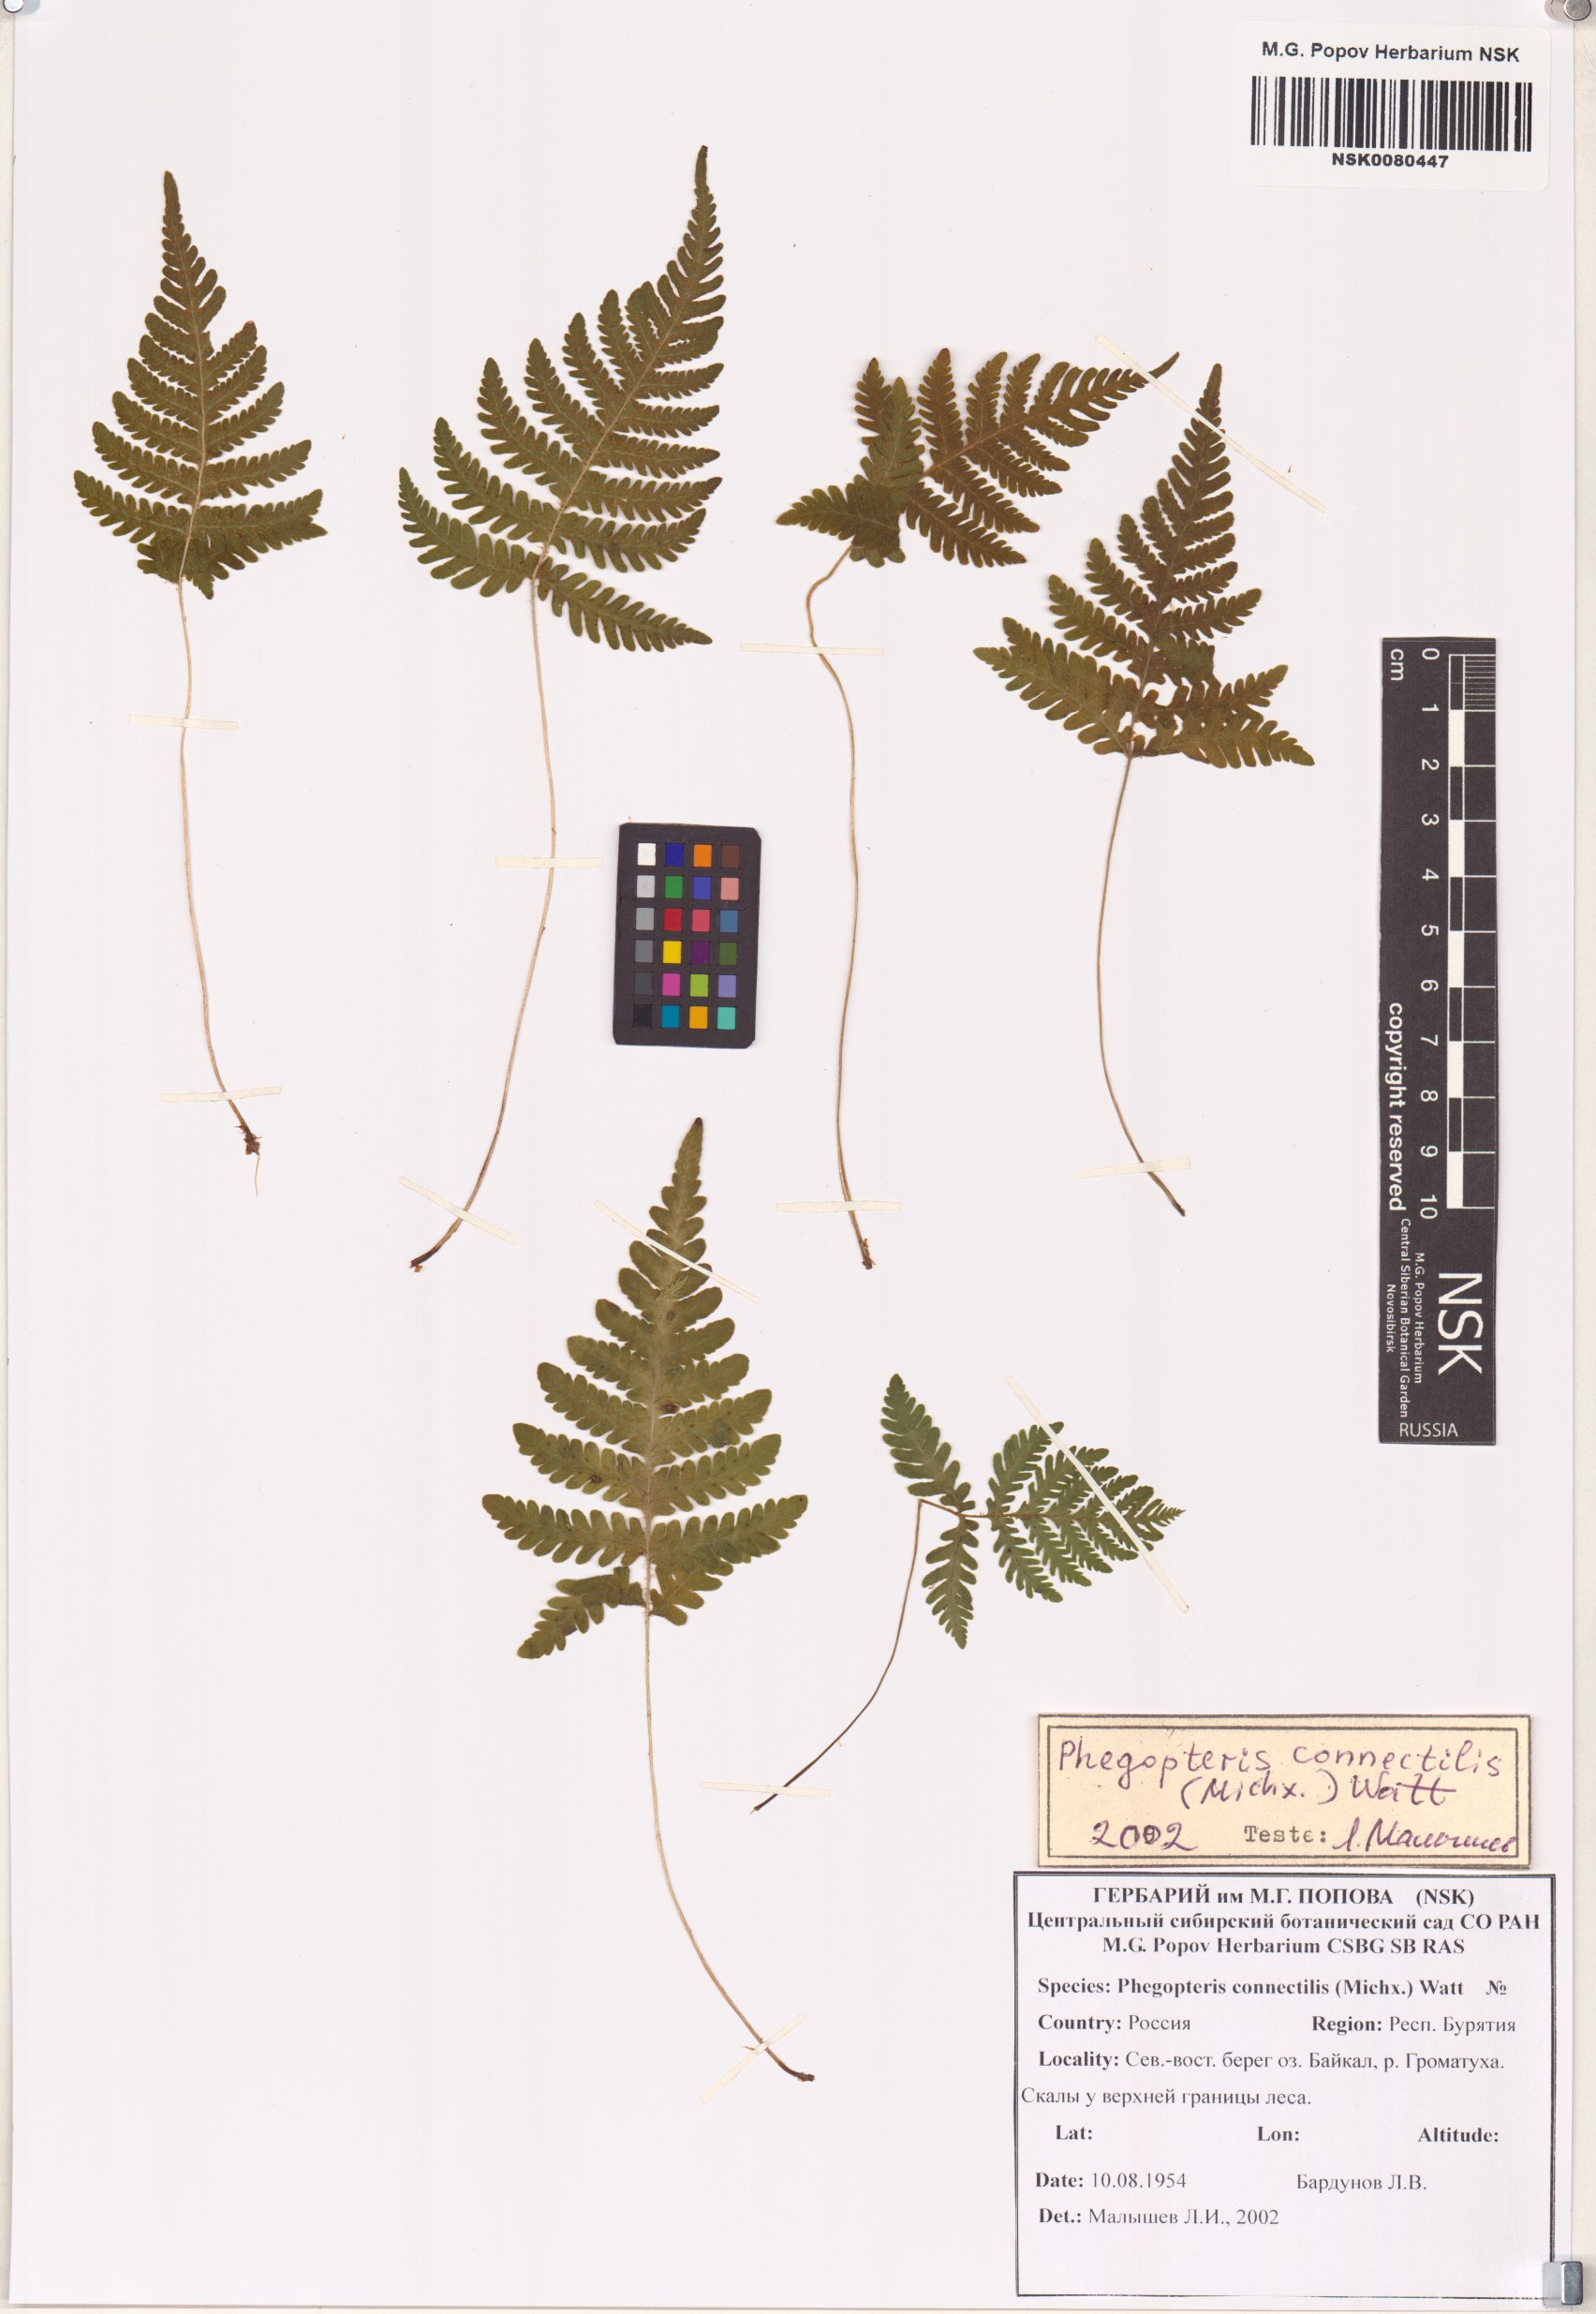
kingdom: Plantae
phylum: Tracheophyta
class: Polypodiopsida
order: Polypodiales
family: Thelypteridaceae
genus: Phegopteris
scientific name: Phegopteris connectilis
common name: Beech fern
